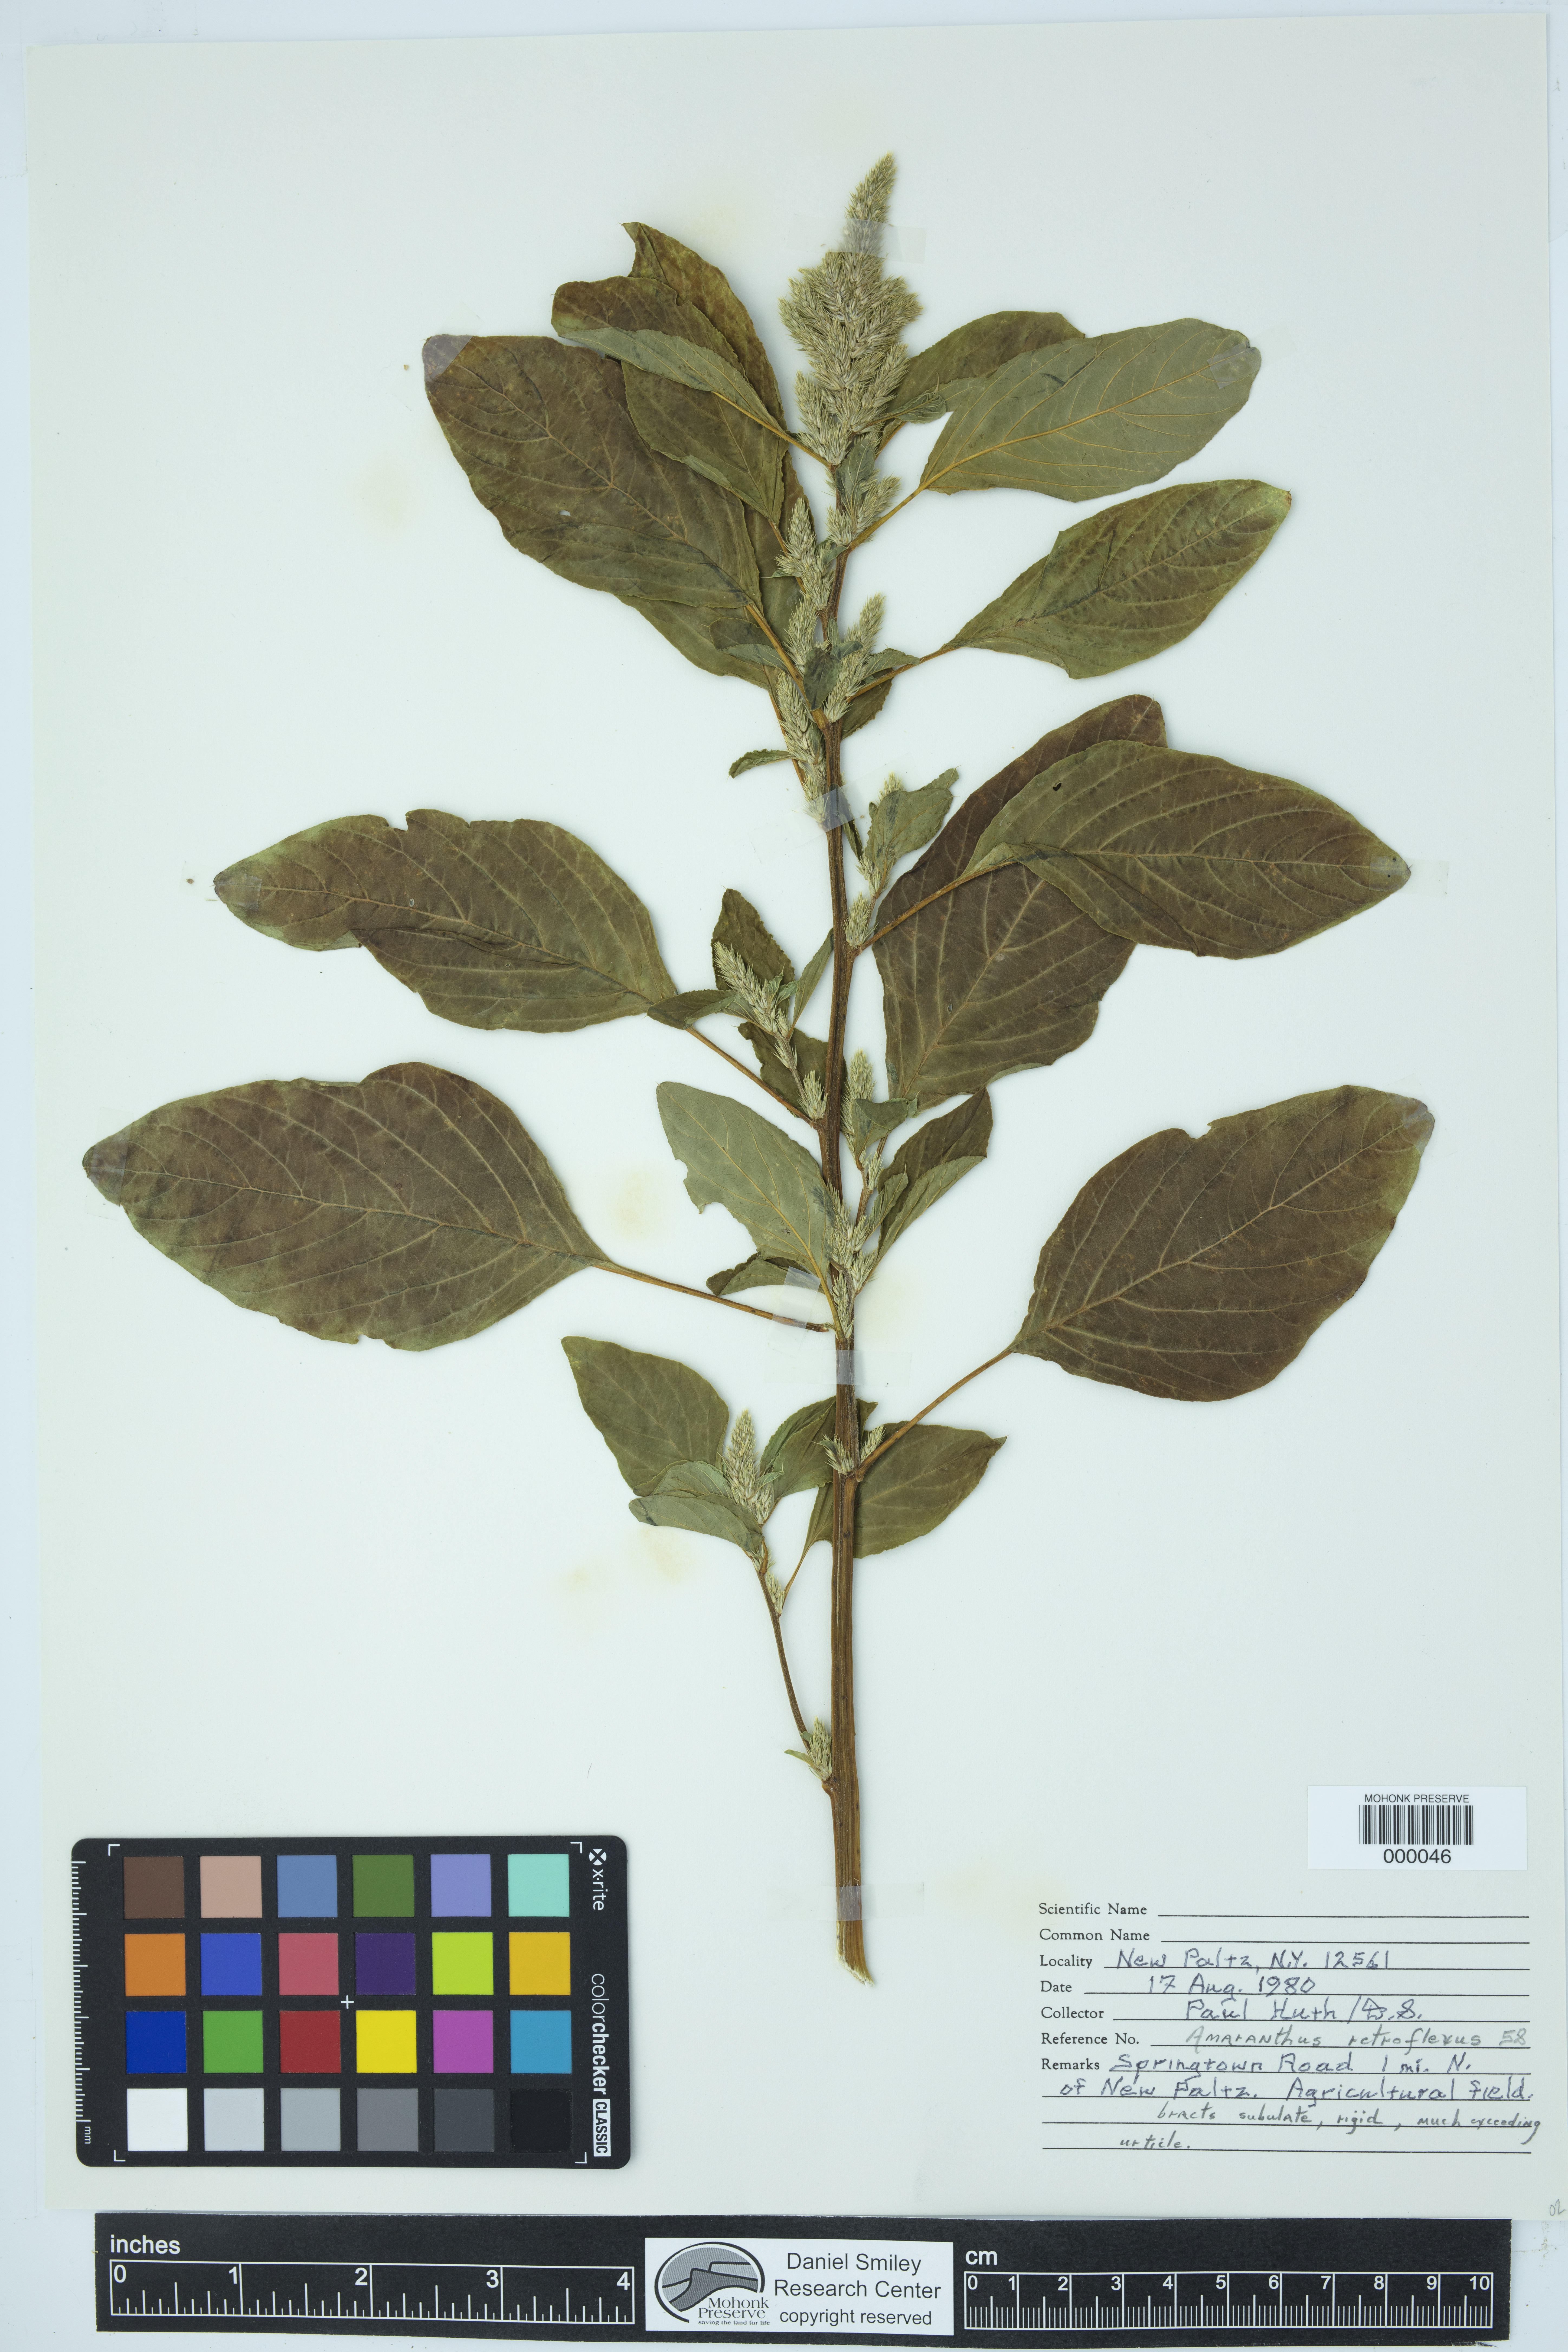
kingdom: Plantae
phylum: Tracheophyta
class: Magnoliopsida
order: Caryophyllales
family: Amaranthaceae
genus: Amaranthus
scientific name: Amaranthus retroflexus
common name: Redroot amaranth
